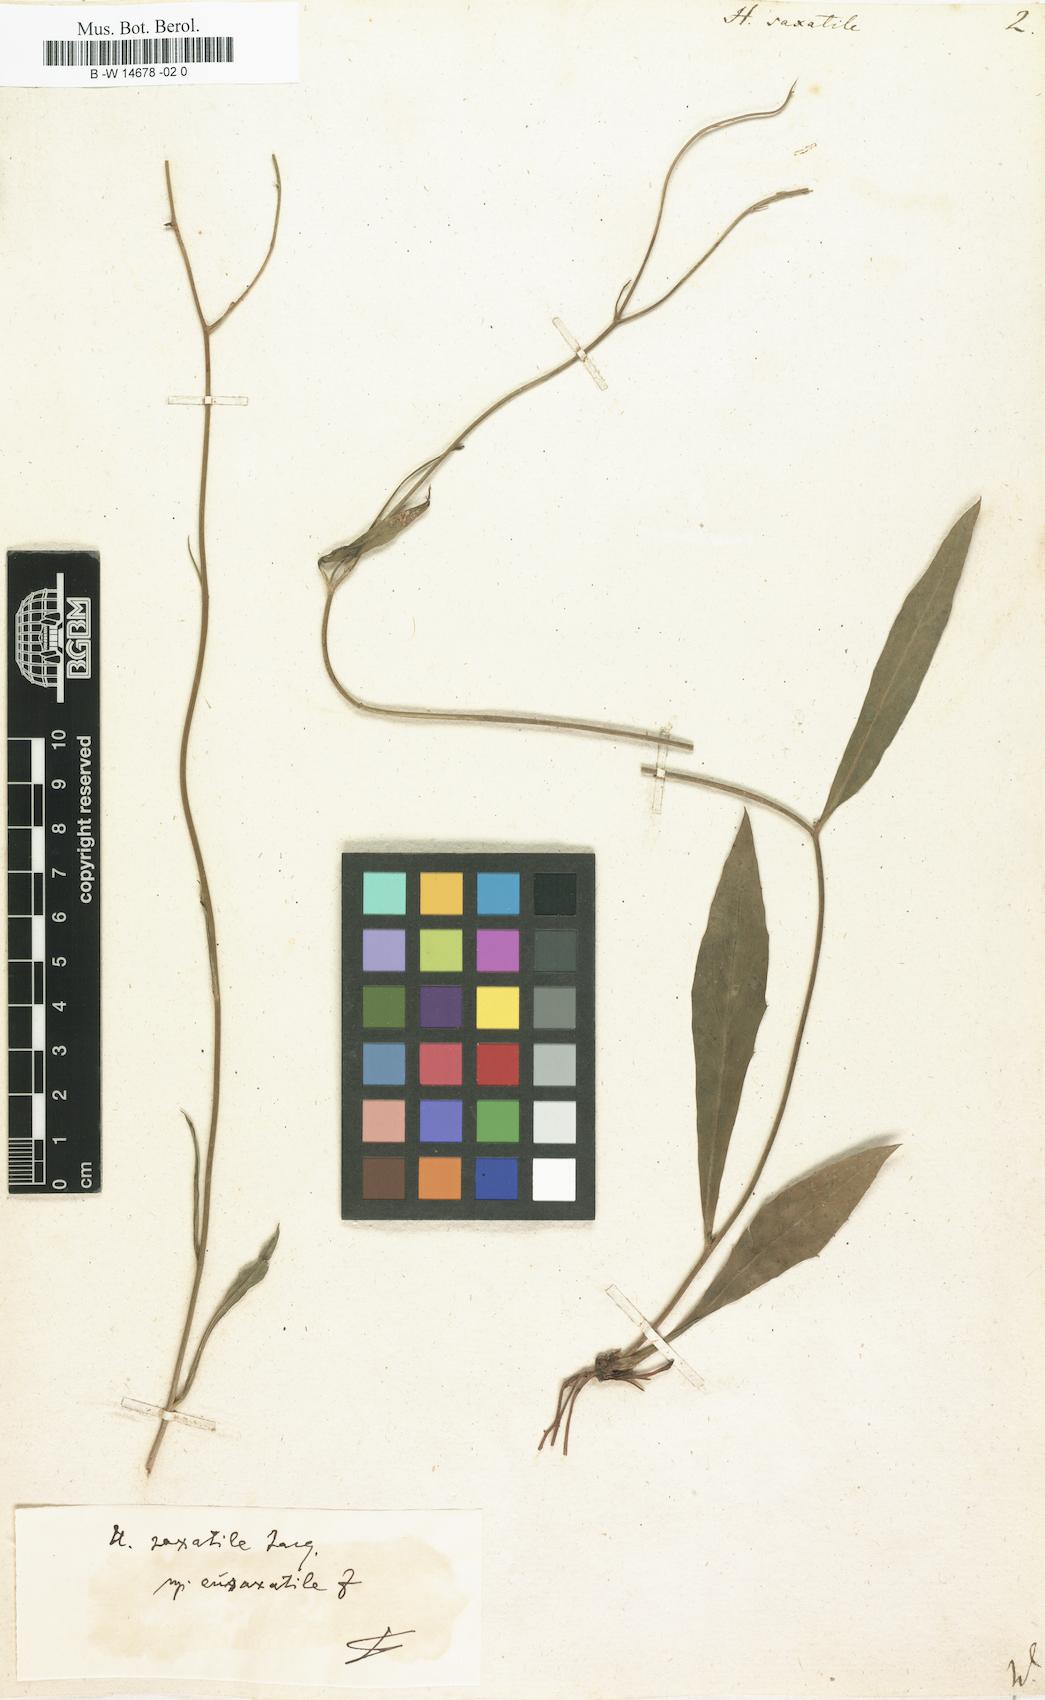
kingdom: Plantae
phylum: Tracheophyta
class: Magnoliopsida
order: Asterales
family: Asteraceae
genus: Hieracium
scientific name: Hieracium saxatile
